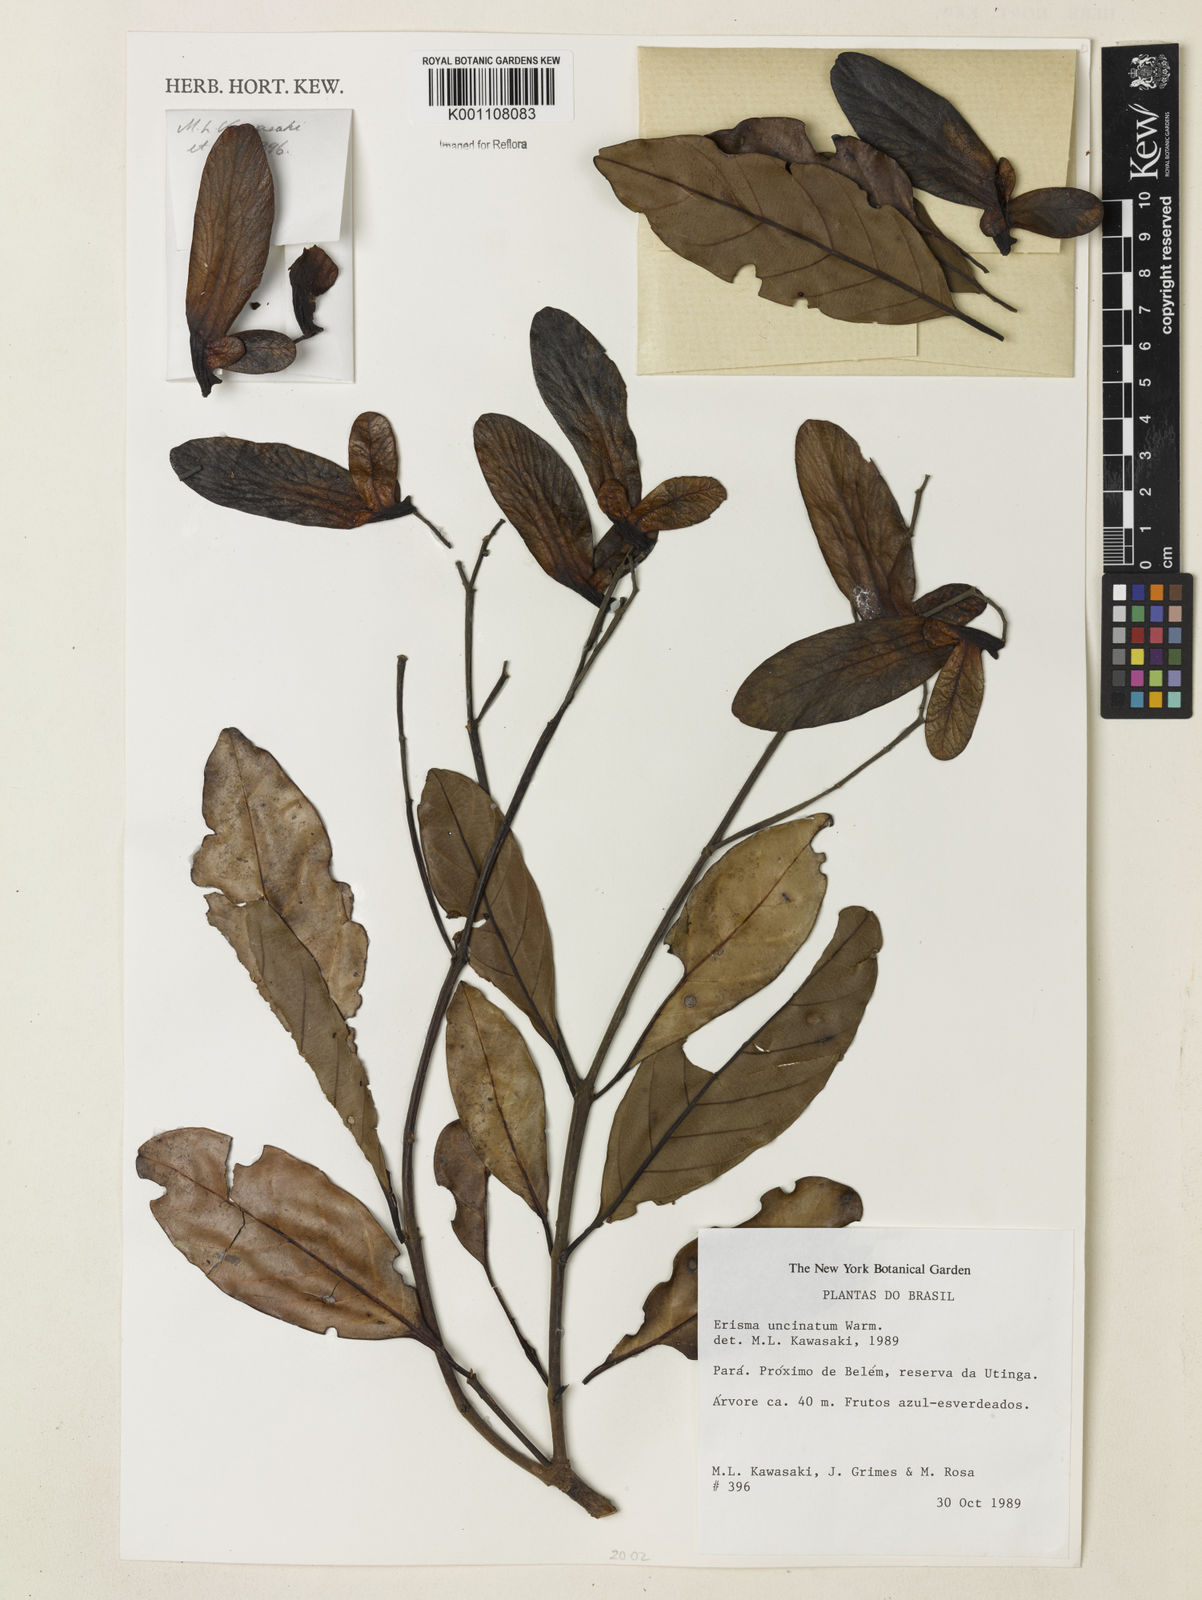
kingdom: Plantae
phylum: Tracheophyta
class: Magnoliopsida
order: Myrtales
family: Vochysiaceae
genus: Erisma
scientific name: Erisma uncinatum
